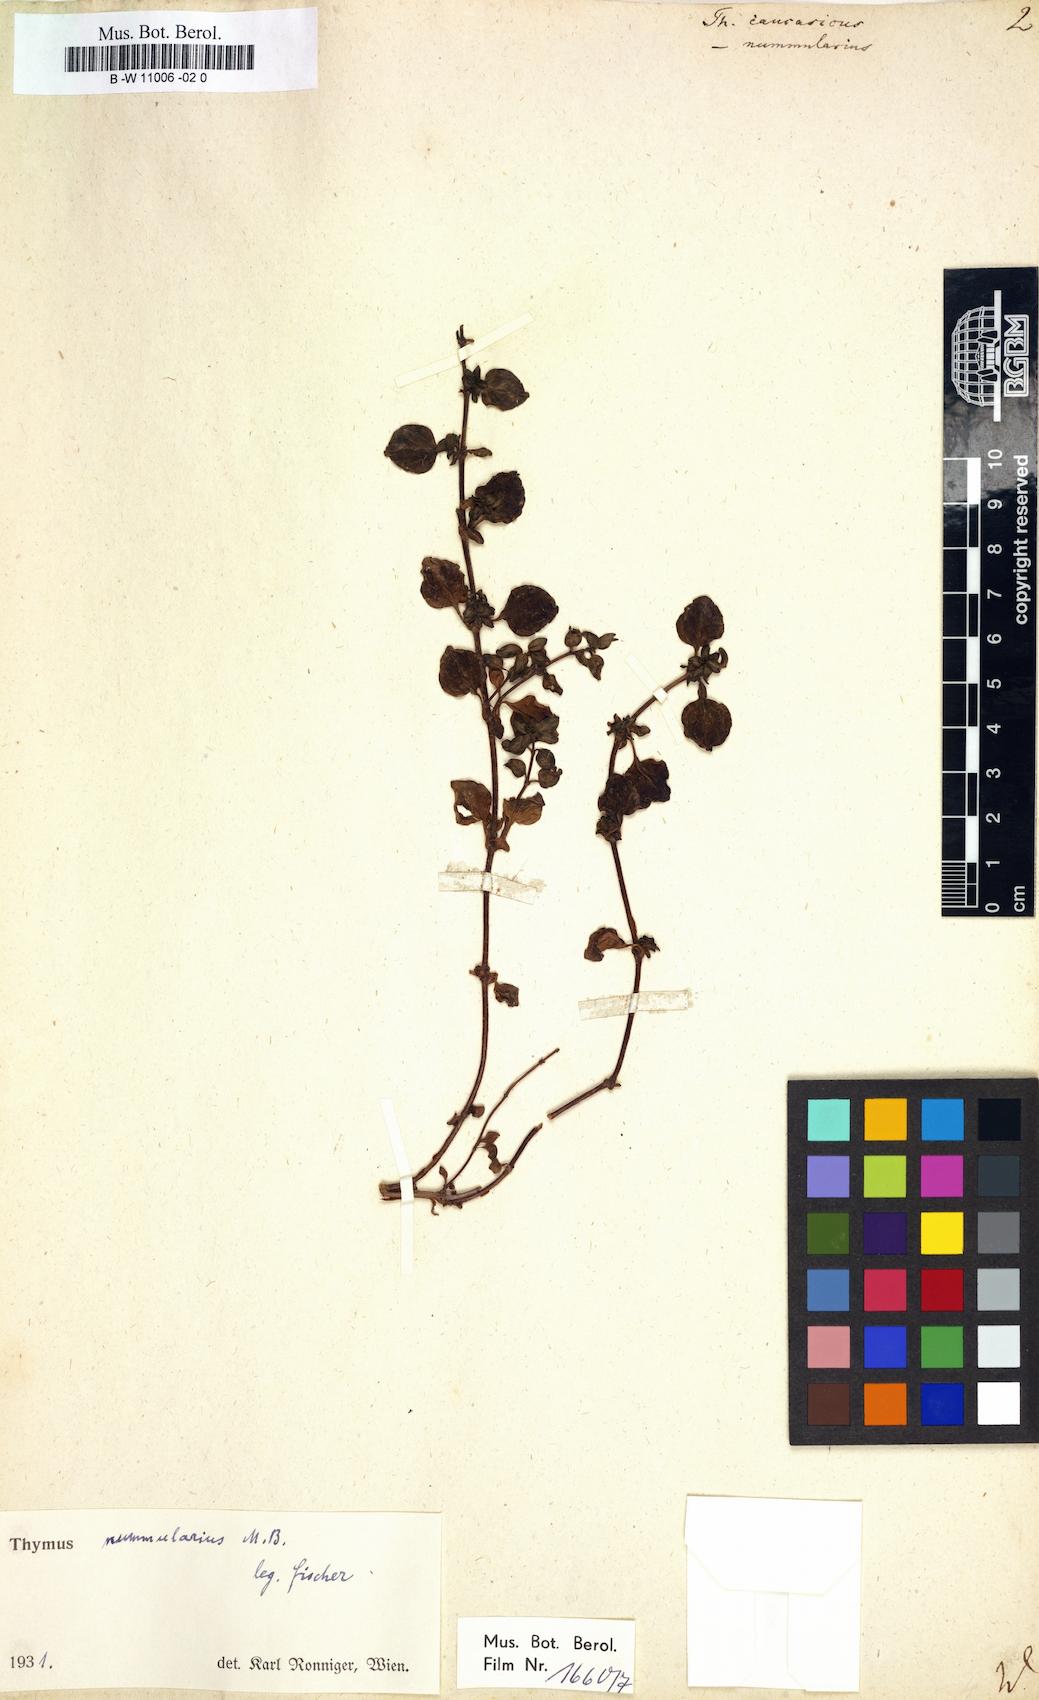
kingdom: Plantae
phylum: Tracheophyta
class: Magnoliopsida
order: Lamiales
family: Lamiaceae
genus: Thymus
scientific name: Thymus
